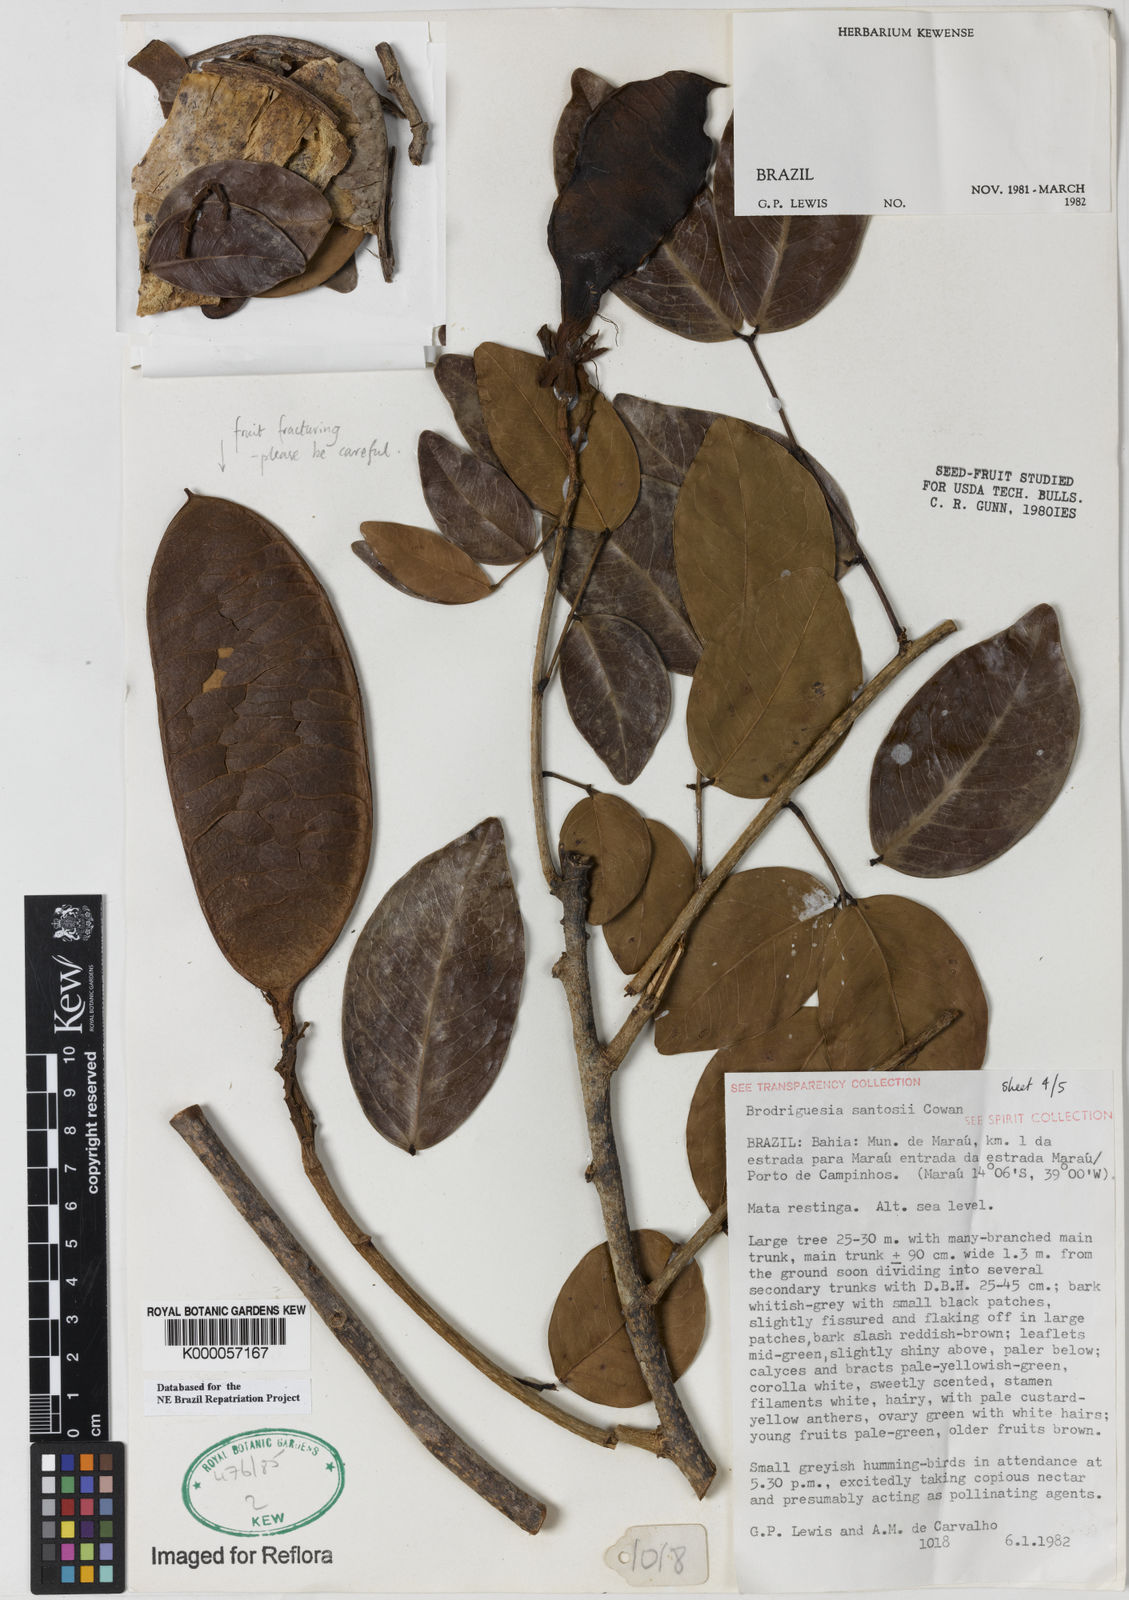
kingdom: Plantae
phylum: Tracheophyta
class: Magnoliopsida
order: Fabales
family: Fabaceae
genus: Brodriguesia
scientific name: Brodriguesia santosii
